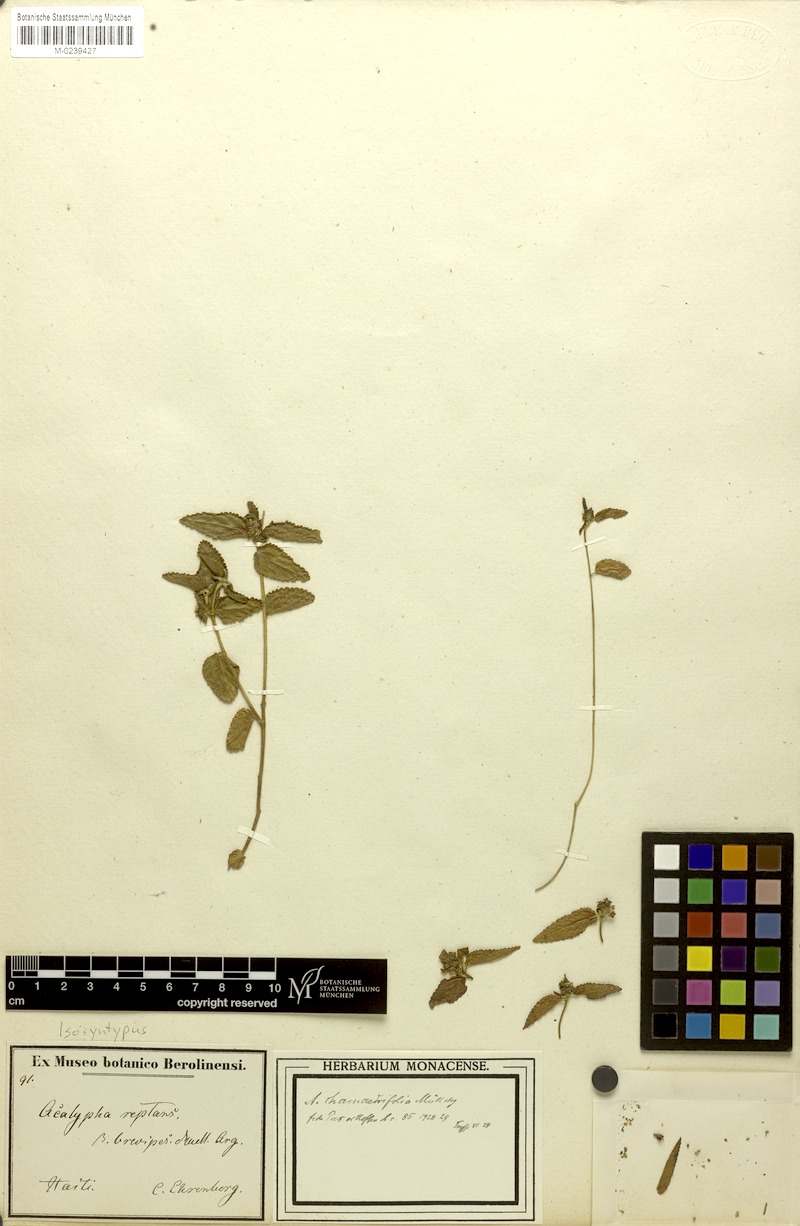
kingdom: Plantae
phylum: Tracheophyta
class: Magnoliopsida
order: Malpighiales
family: Euphorbiaceae
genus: Acalypha
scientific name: Acalypha chamaedrifolia
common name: Bastard copperleaf
